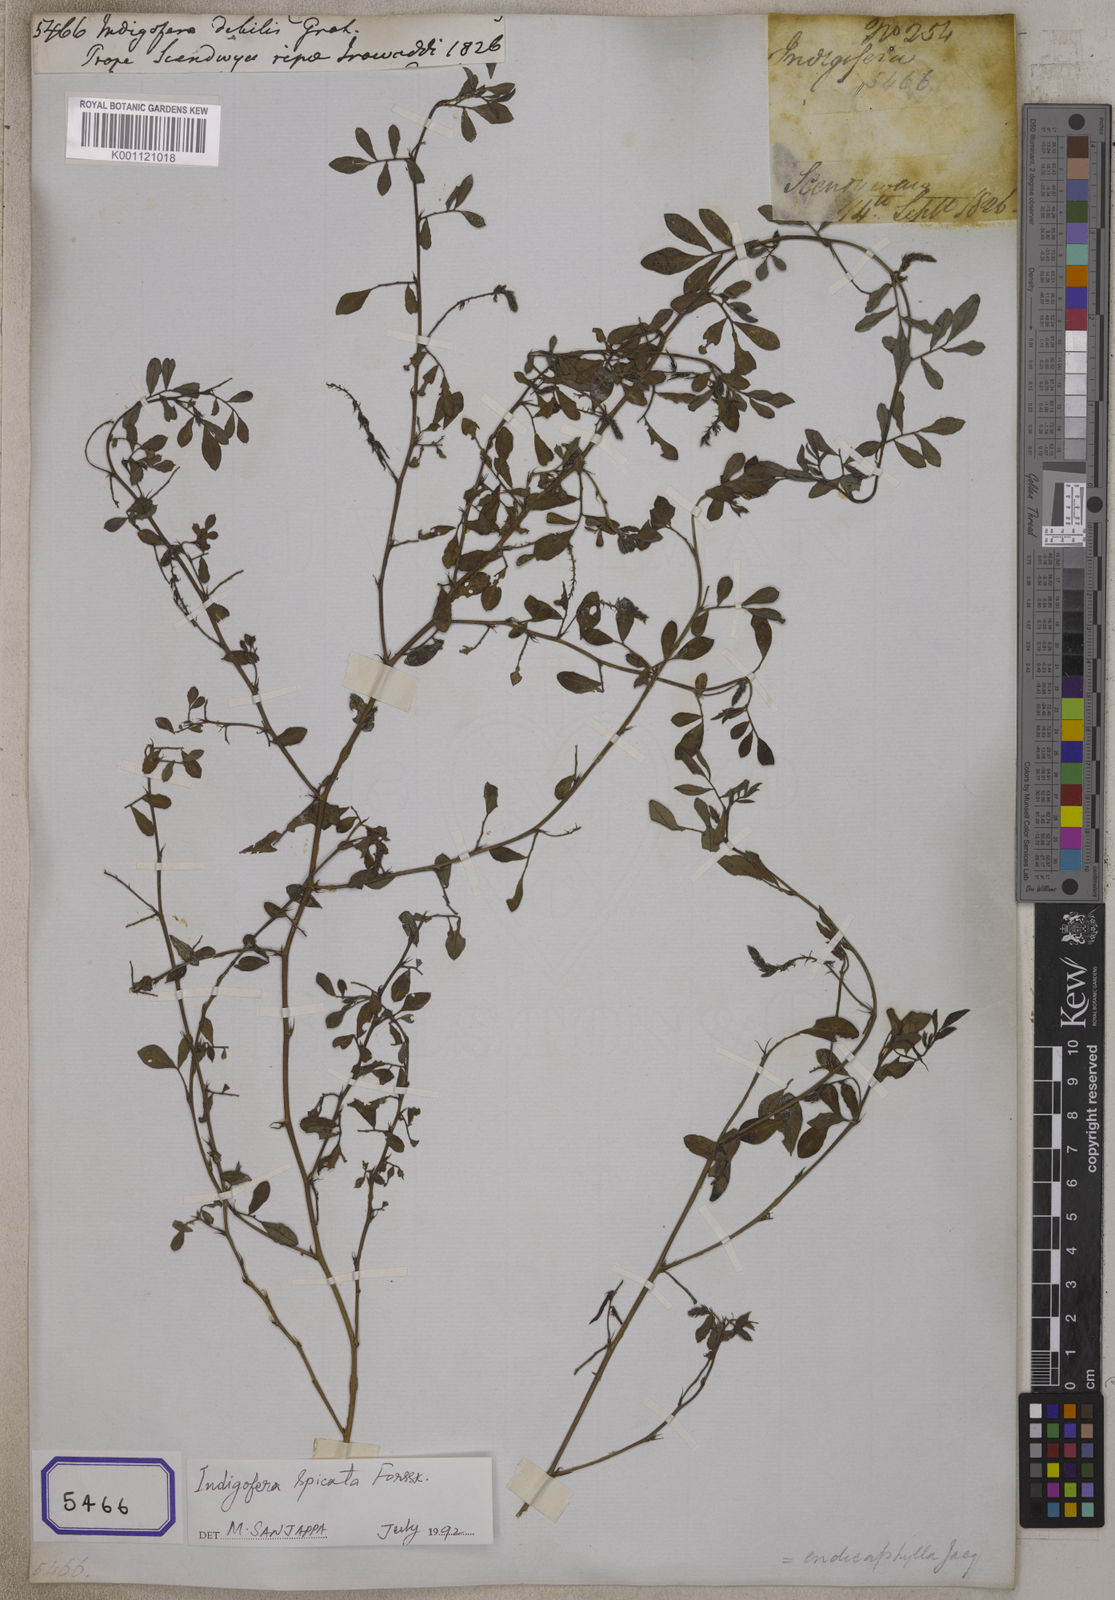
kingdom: Plantae
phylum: Tracheophyta
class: Magnoliopsida
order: Fabales
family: Fabaceae
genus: Indigofera
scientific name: Indigofera linnaei
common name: Nine-leaf indigo
